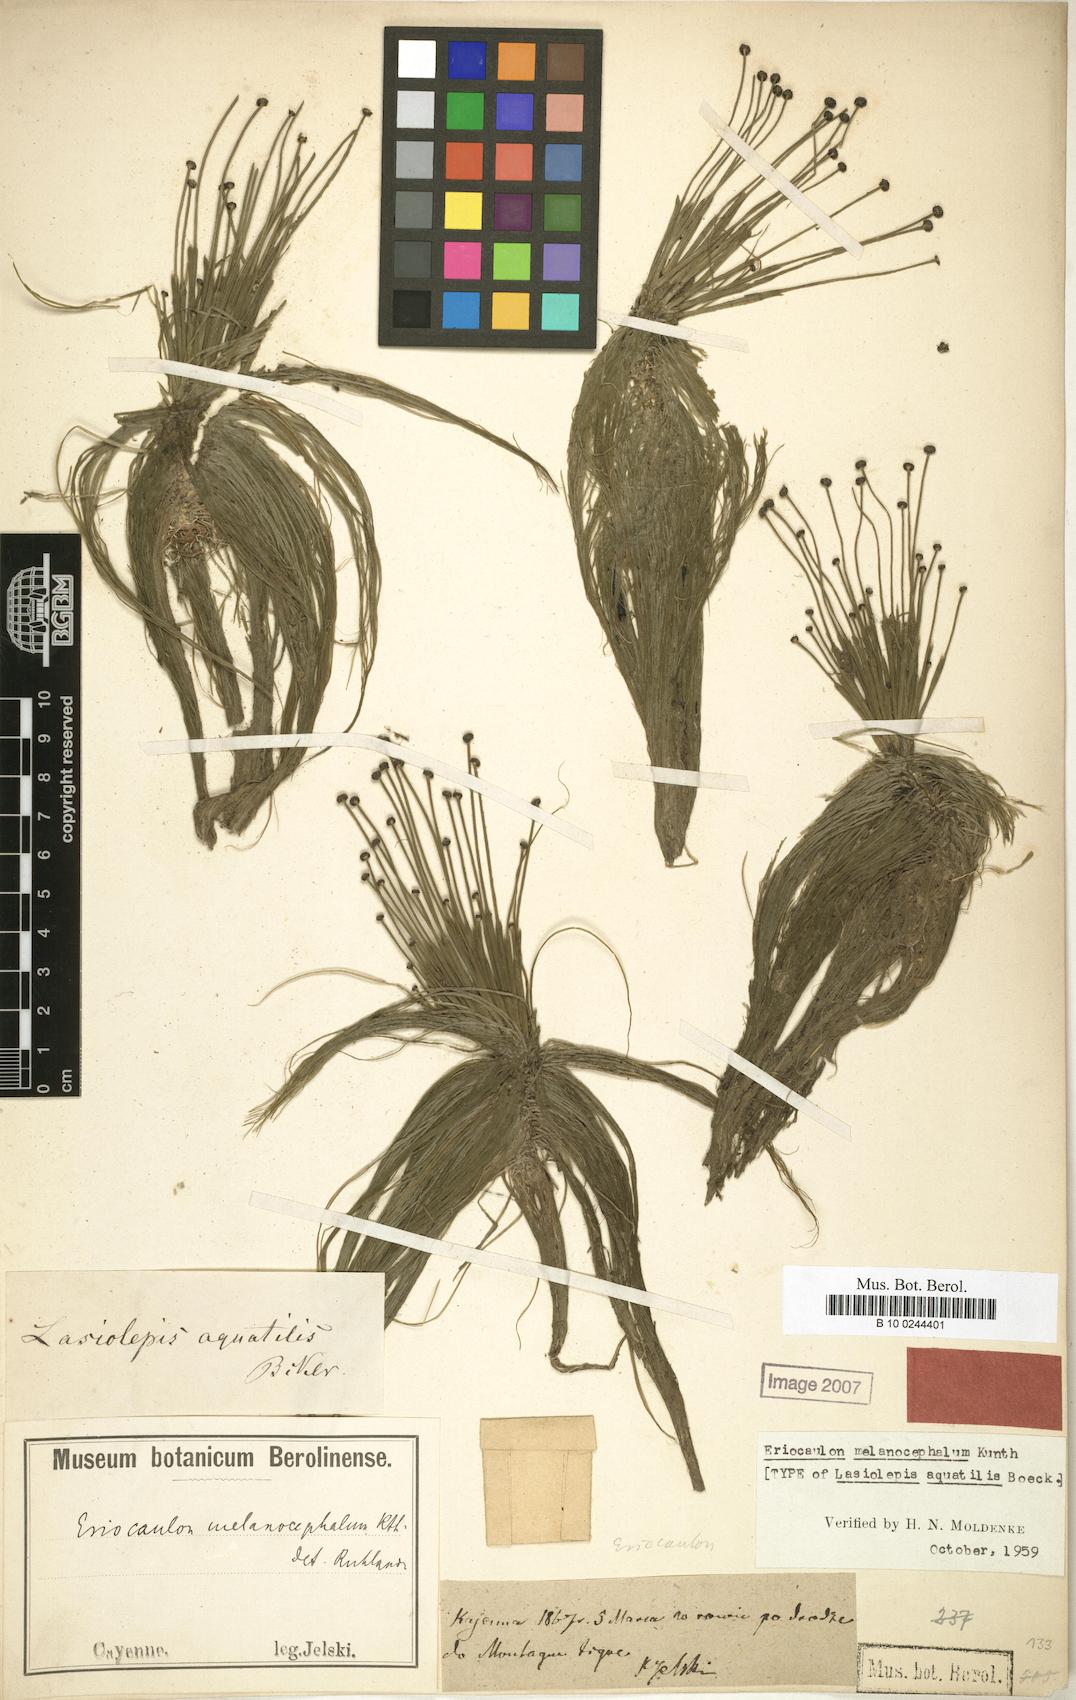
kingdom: Plantae
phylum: Tracheophyta
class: Liliopsida
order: Poales
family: Eriocaulaceae
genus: Eriocaulon
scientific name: Eriocaulon setaceum
